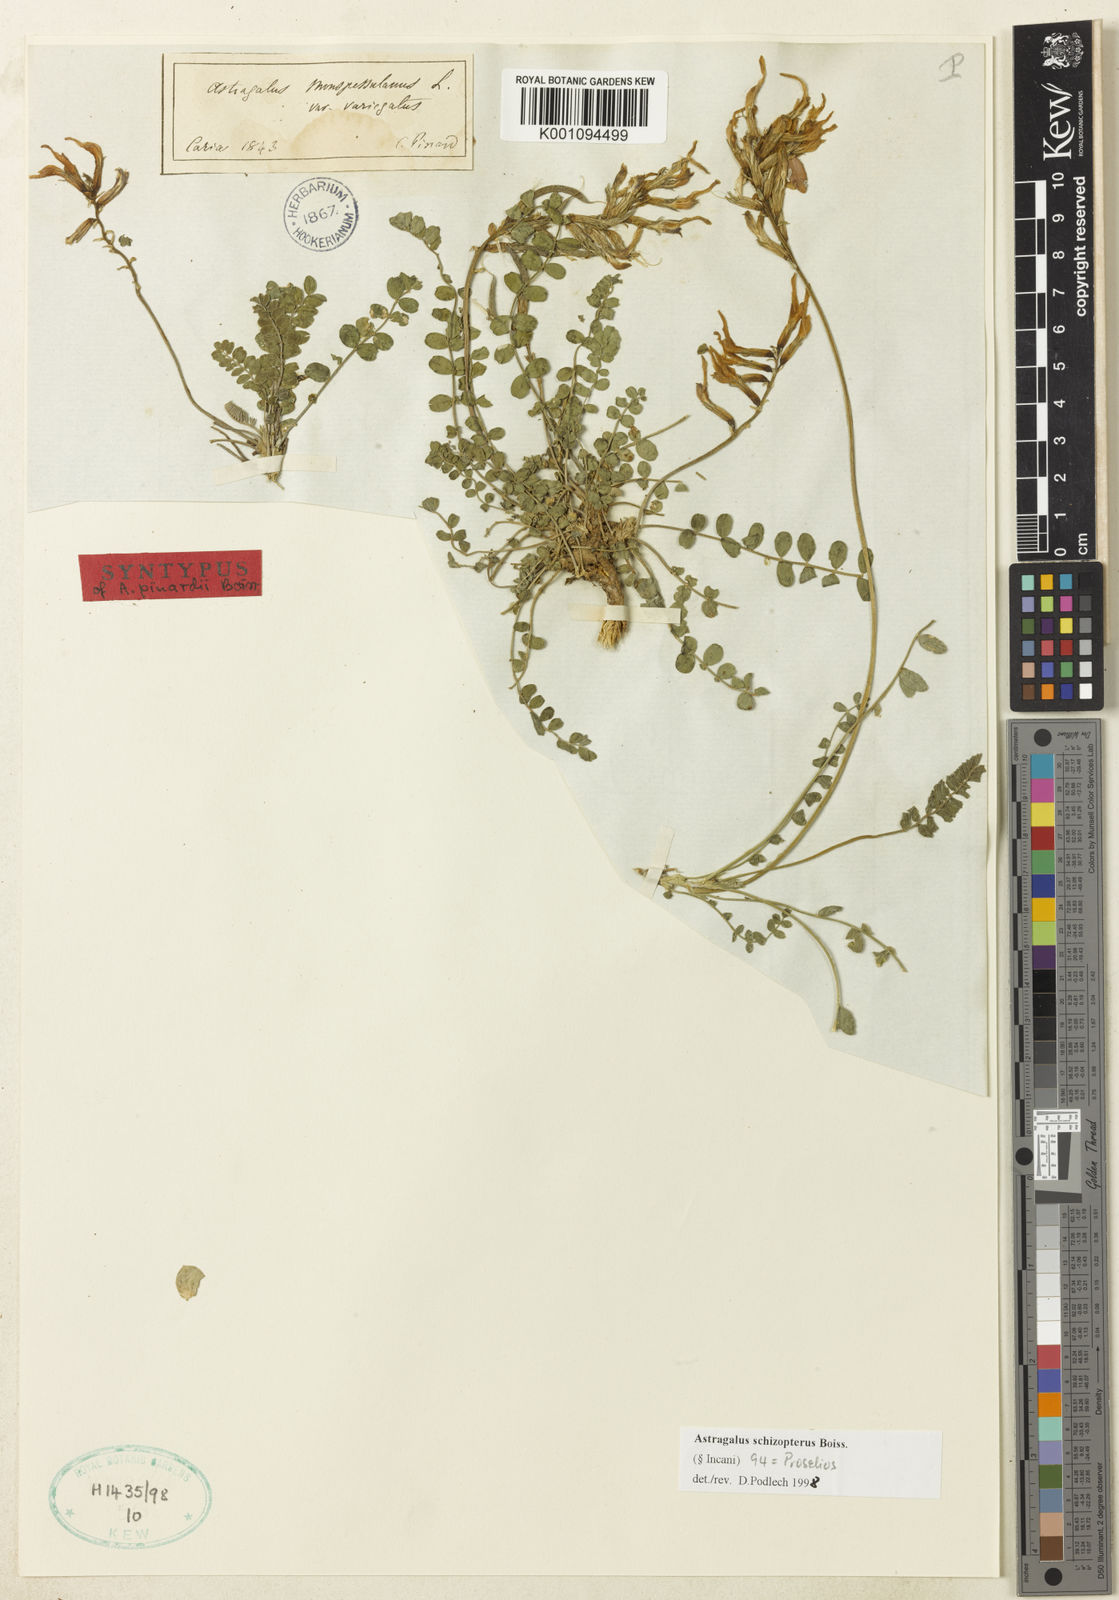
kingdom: Plantae
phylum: Tracheophyta
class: Magnoliopsida
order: Fabales
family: Fabaceae
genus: Astragalus
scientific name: Astragalus
